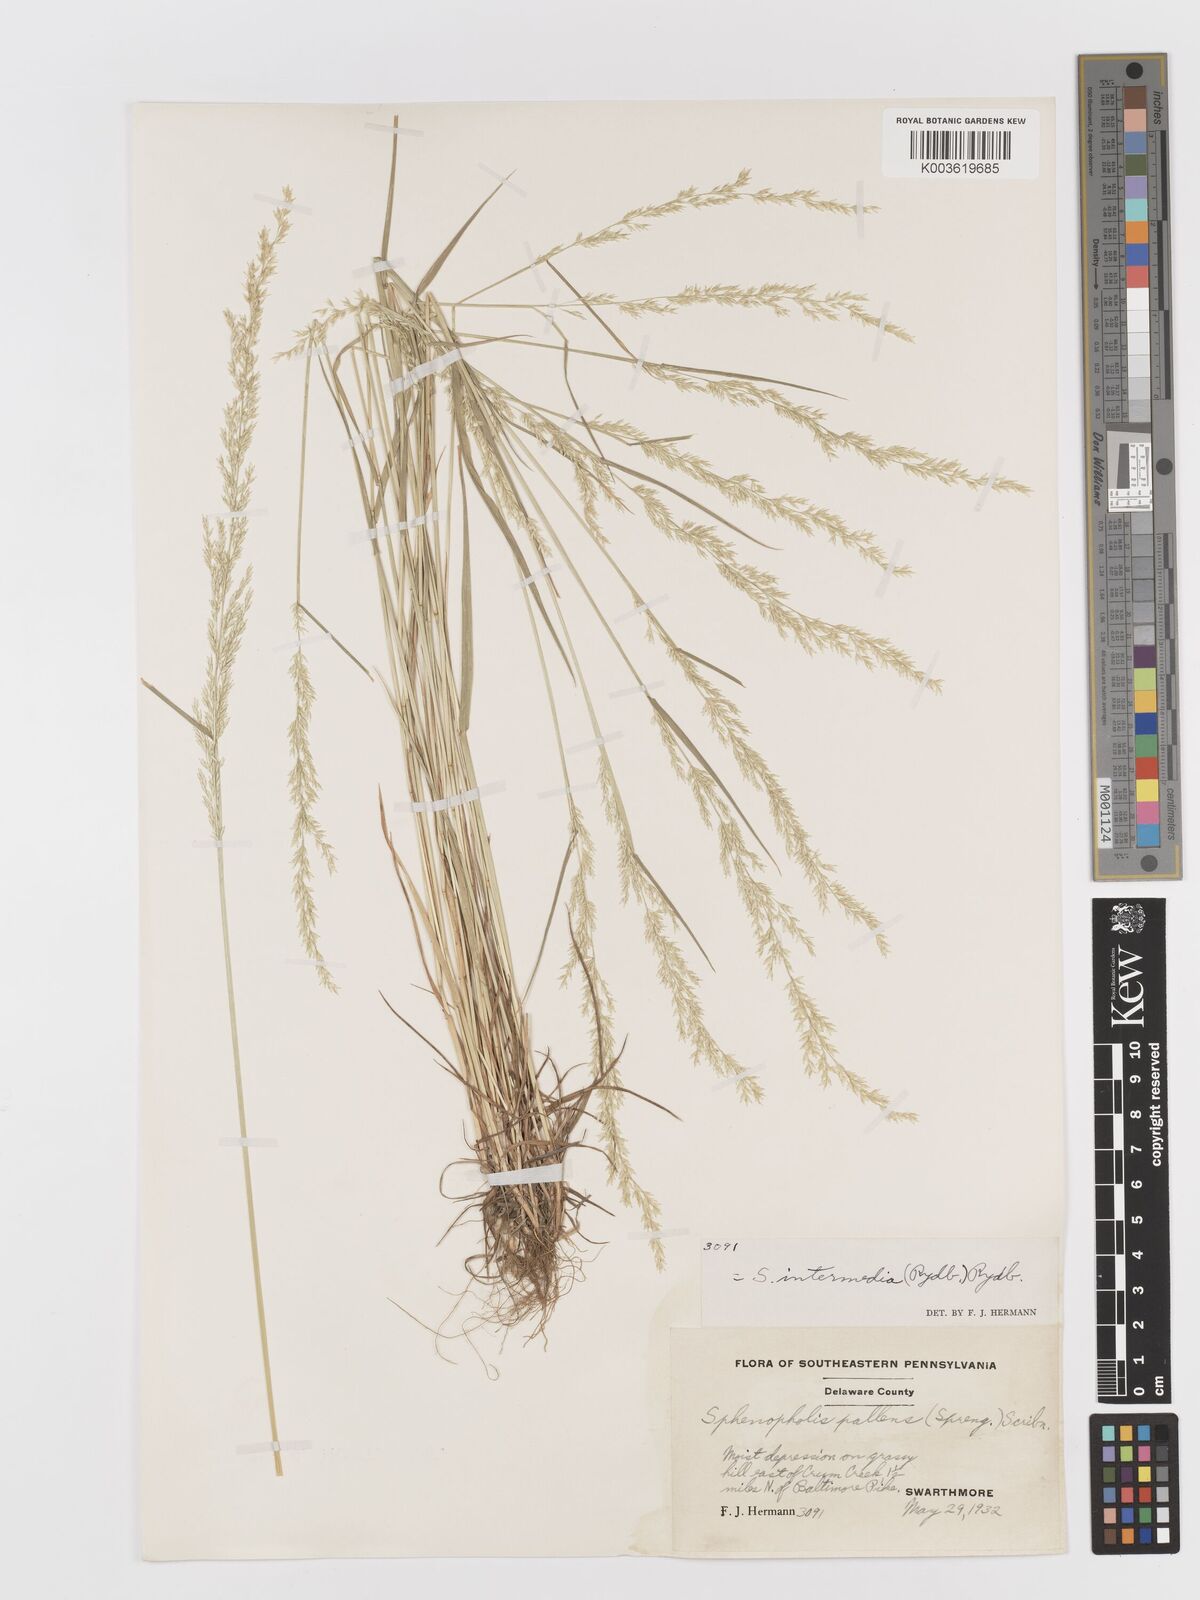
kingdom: Plantae
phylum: Tracheophyta
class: Liliopsida
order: Poales
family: Poaceae
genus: Sphenopholis
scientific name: Sphenopholis obtusata
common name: Prairie grass
